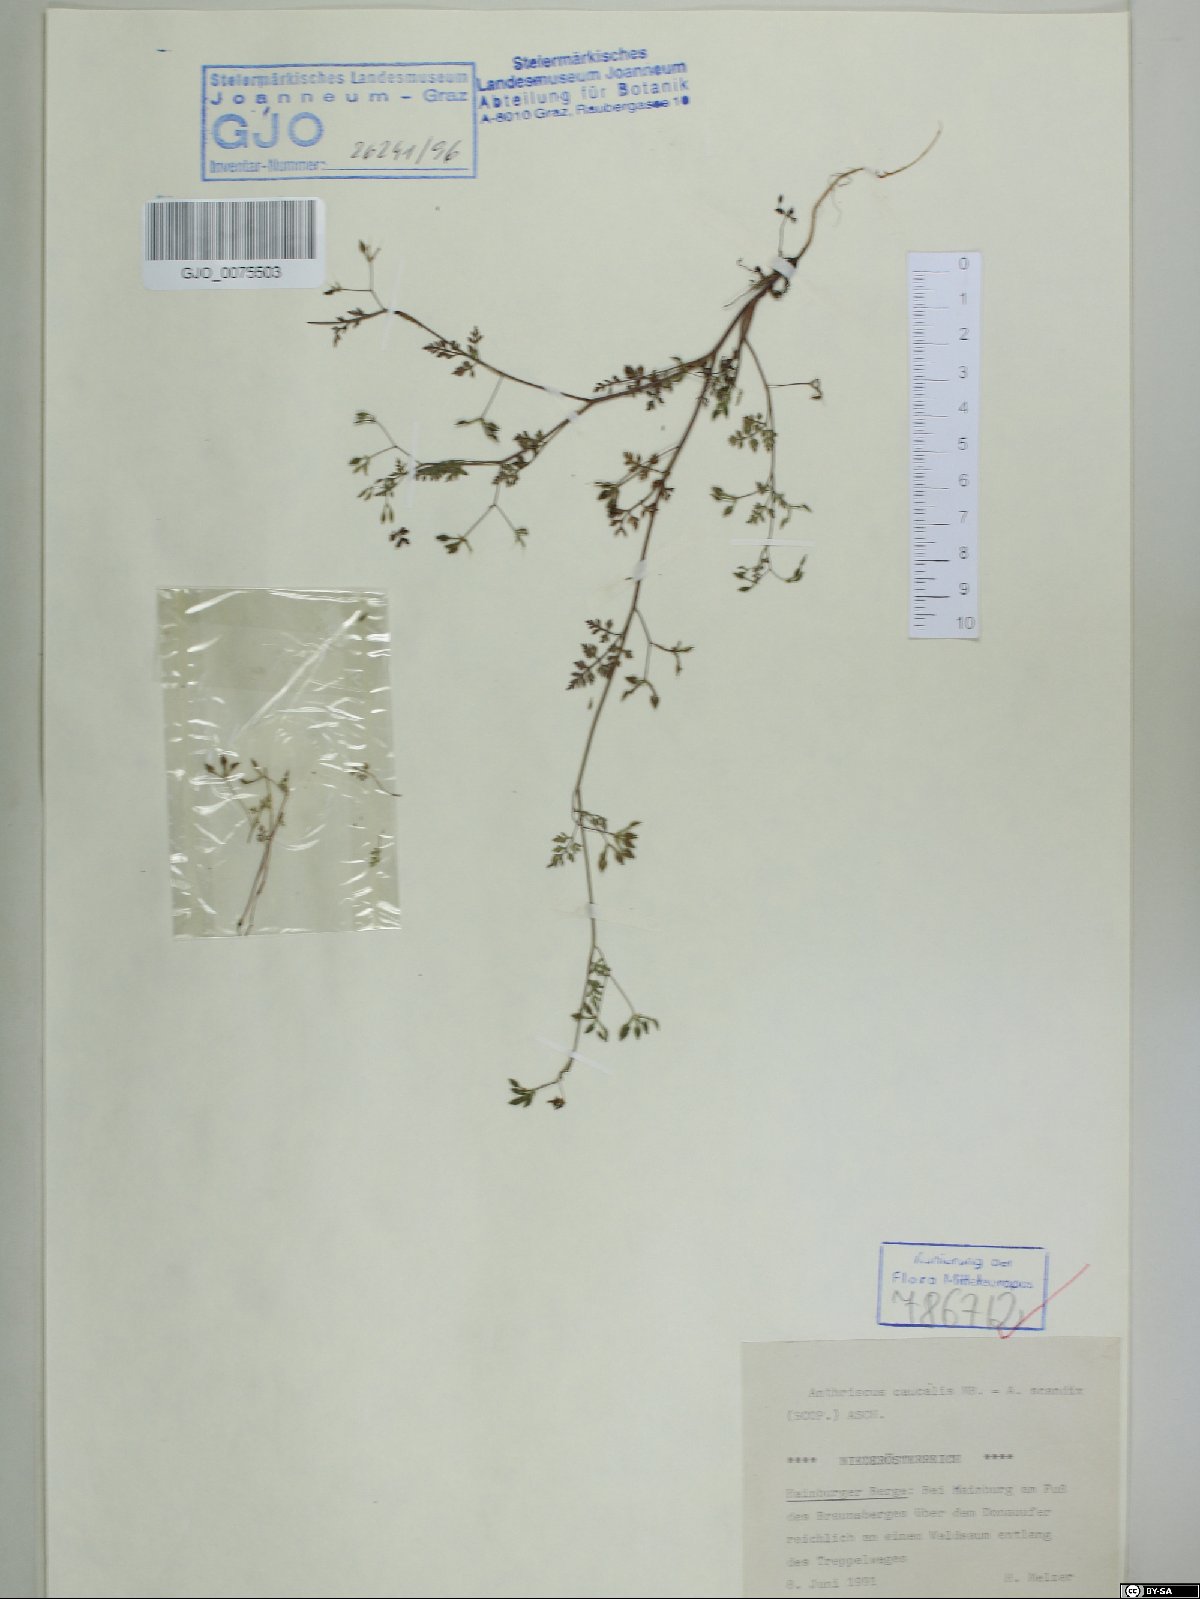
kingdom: Plantae
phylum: Tracheophyta
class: Magnoliopsida
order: Apiales
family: Apiaceae
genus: Anthriscus
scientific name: Anthriscus caucalis
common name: Bur chervil
